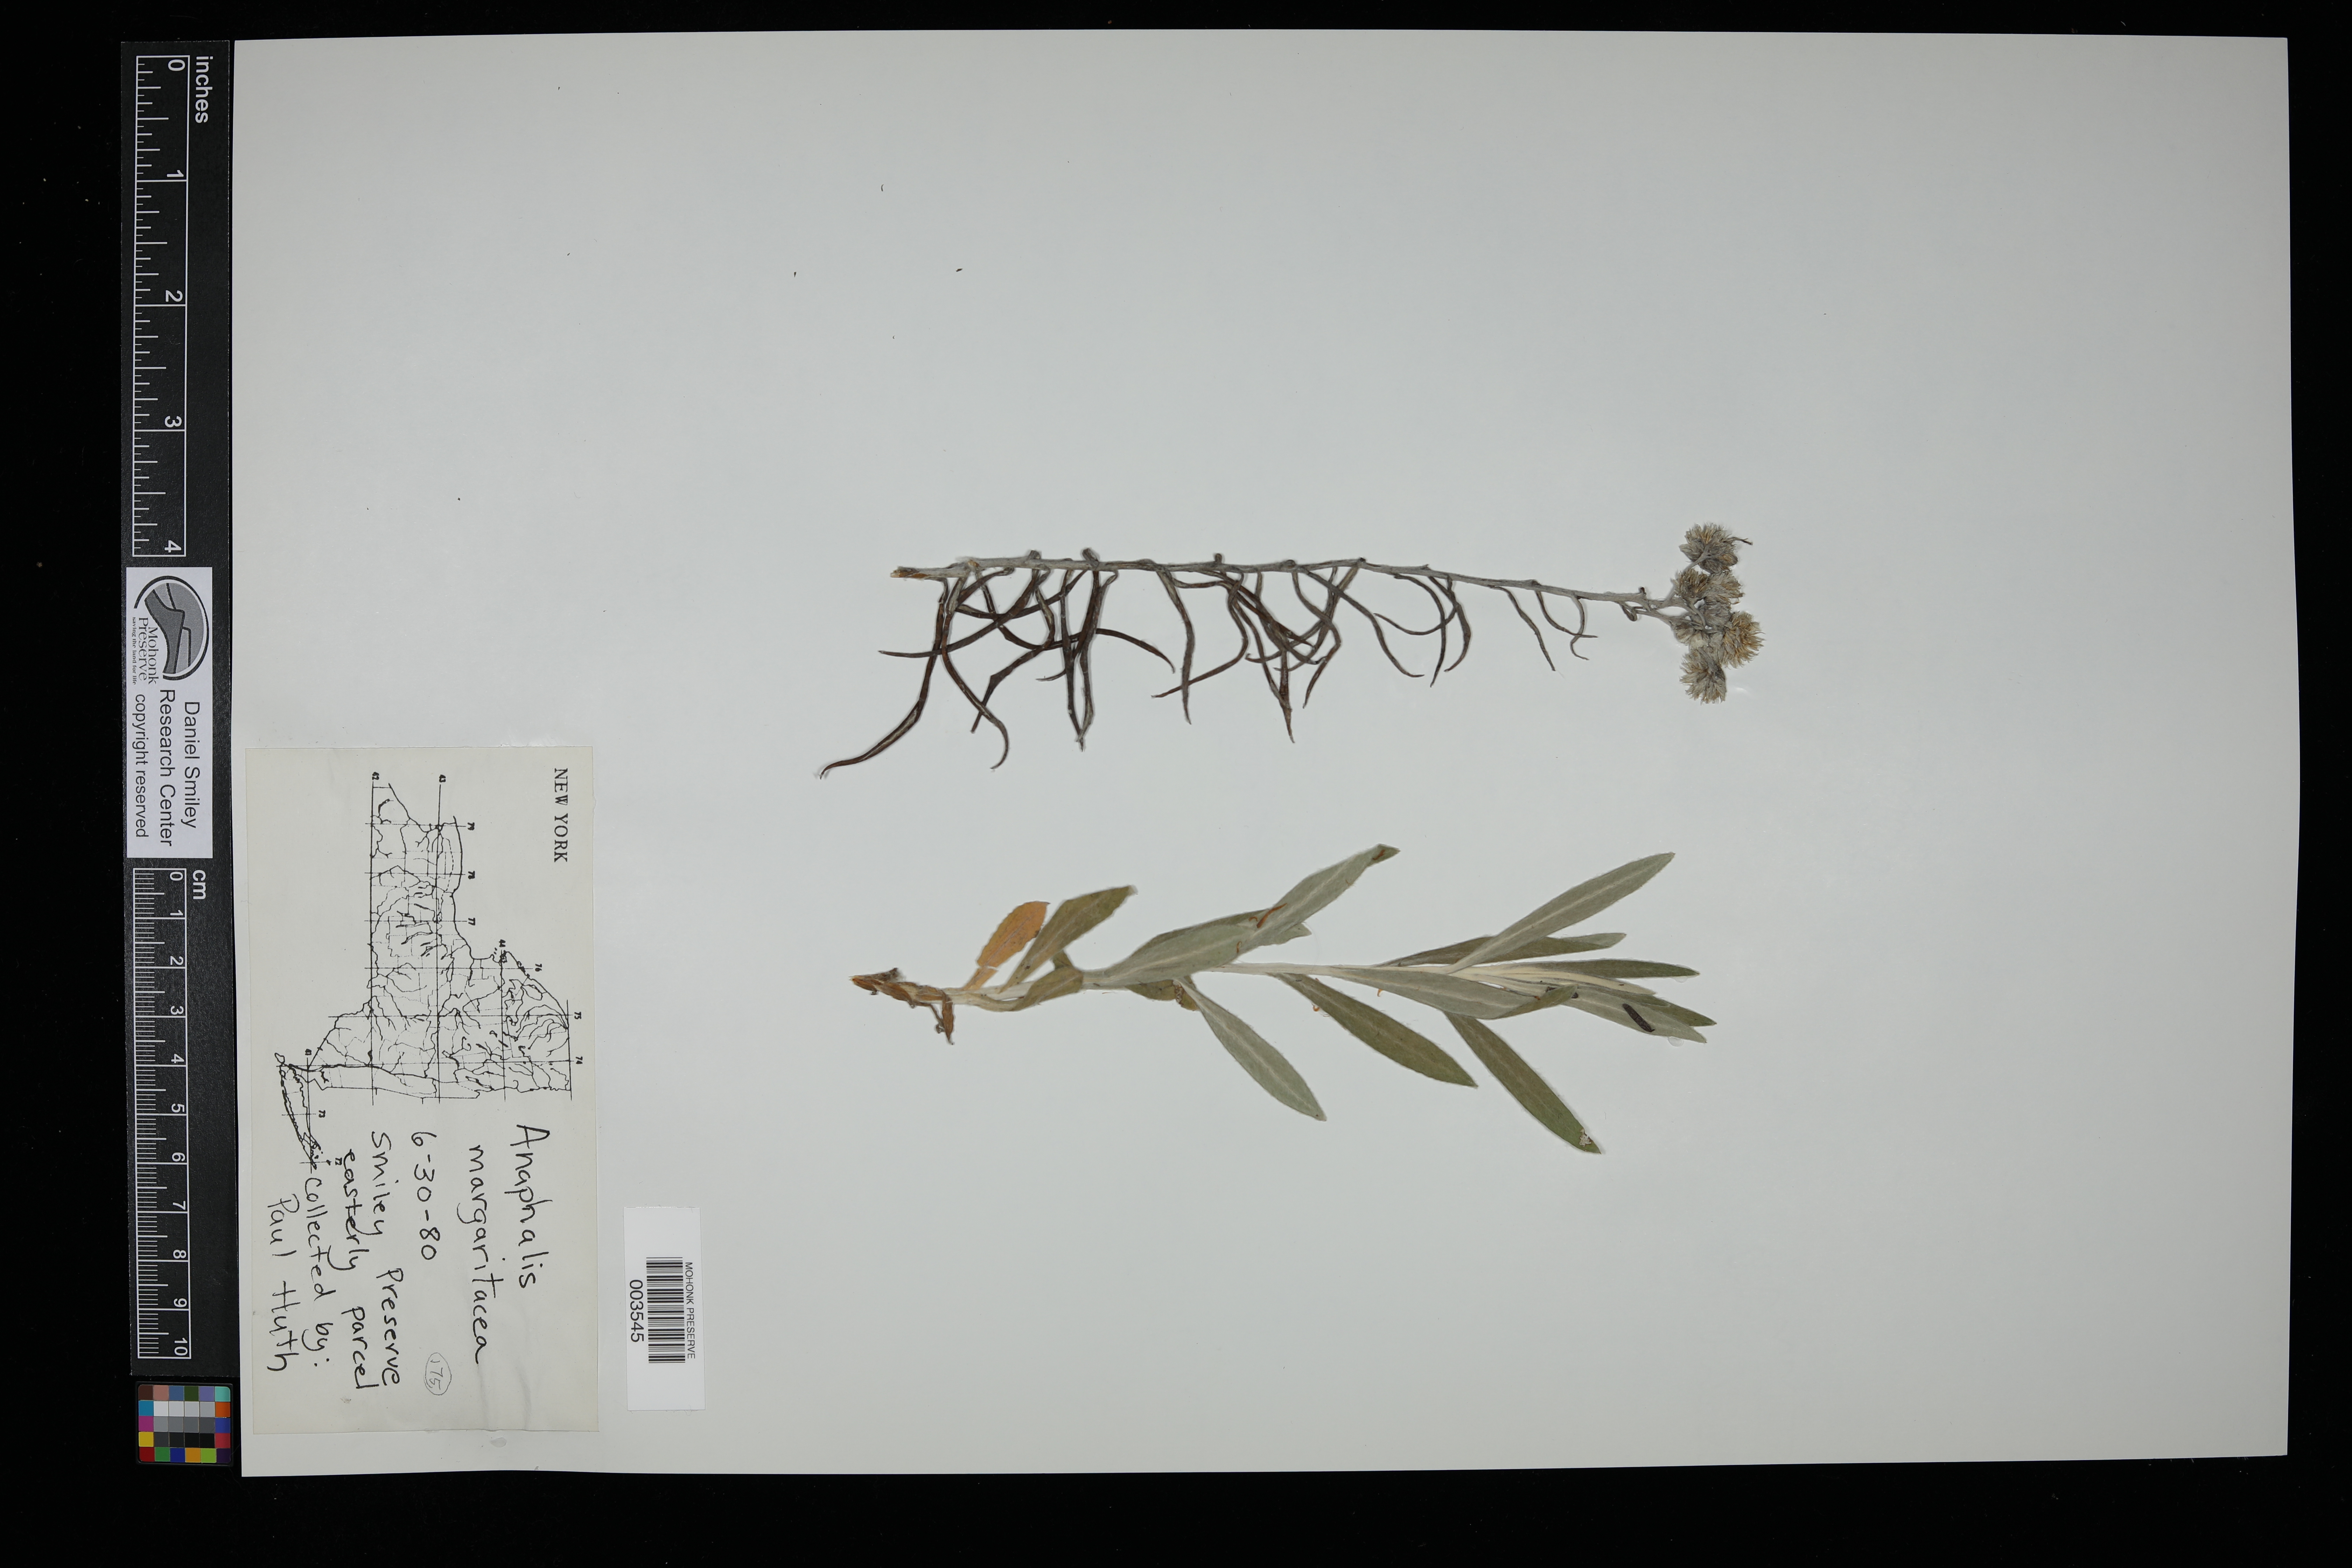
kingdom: Plantae
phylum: Tracheophyta
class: Magnoliopsida
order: Asterales
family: Asteraceae
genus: Anaphalis
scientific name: Anaphalis margaritacea
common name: Pearly everlasting
